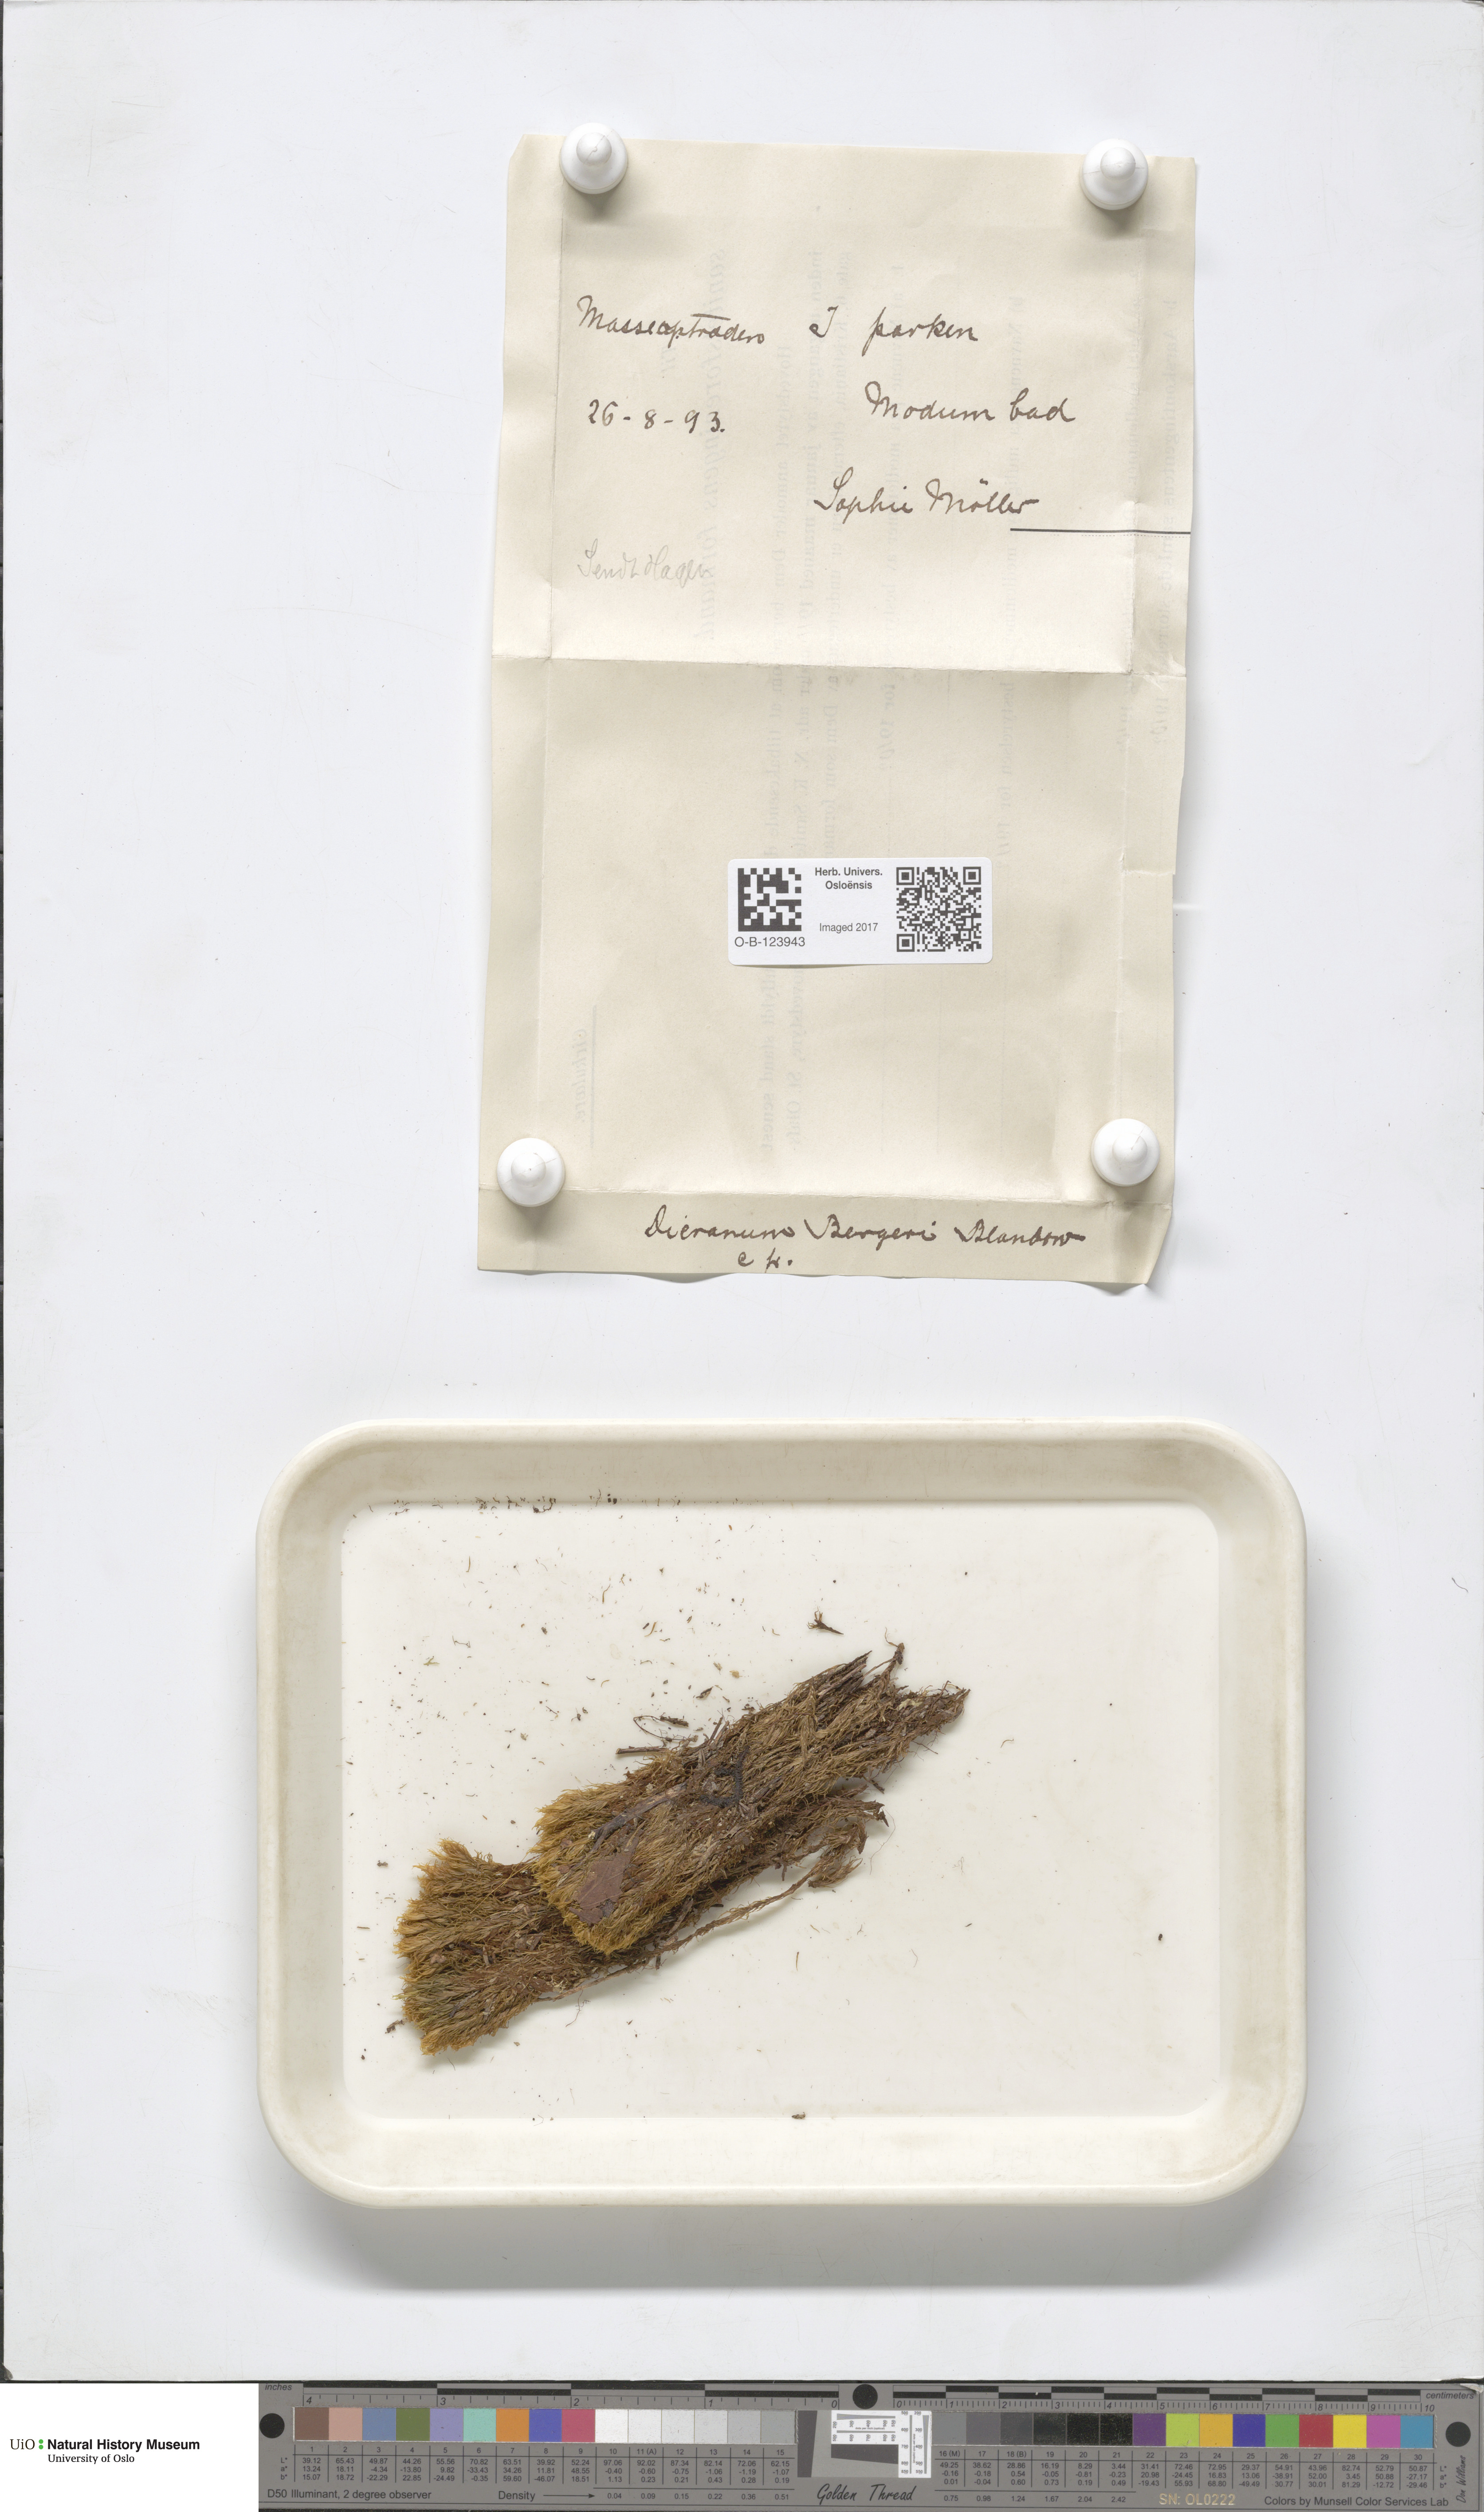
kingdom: Plantae
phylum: Bryophyta
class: Bryopsida
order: Dicranales
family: Dicranaceae
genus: Dicranum
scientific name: Dicranum undulatum
